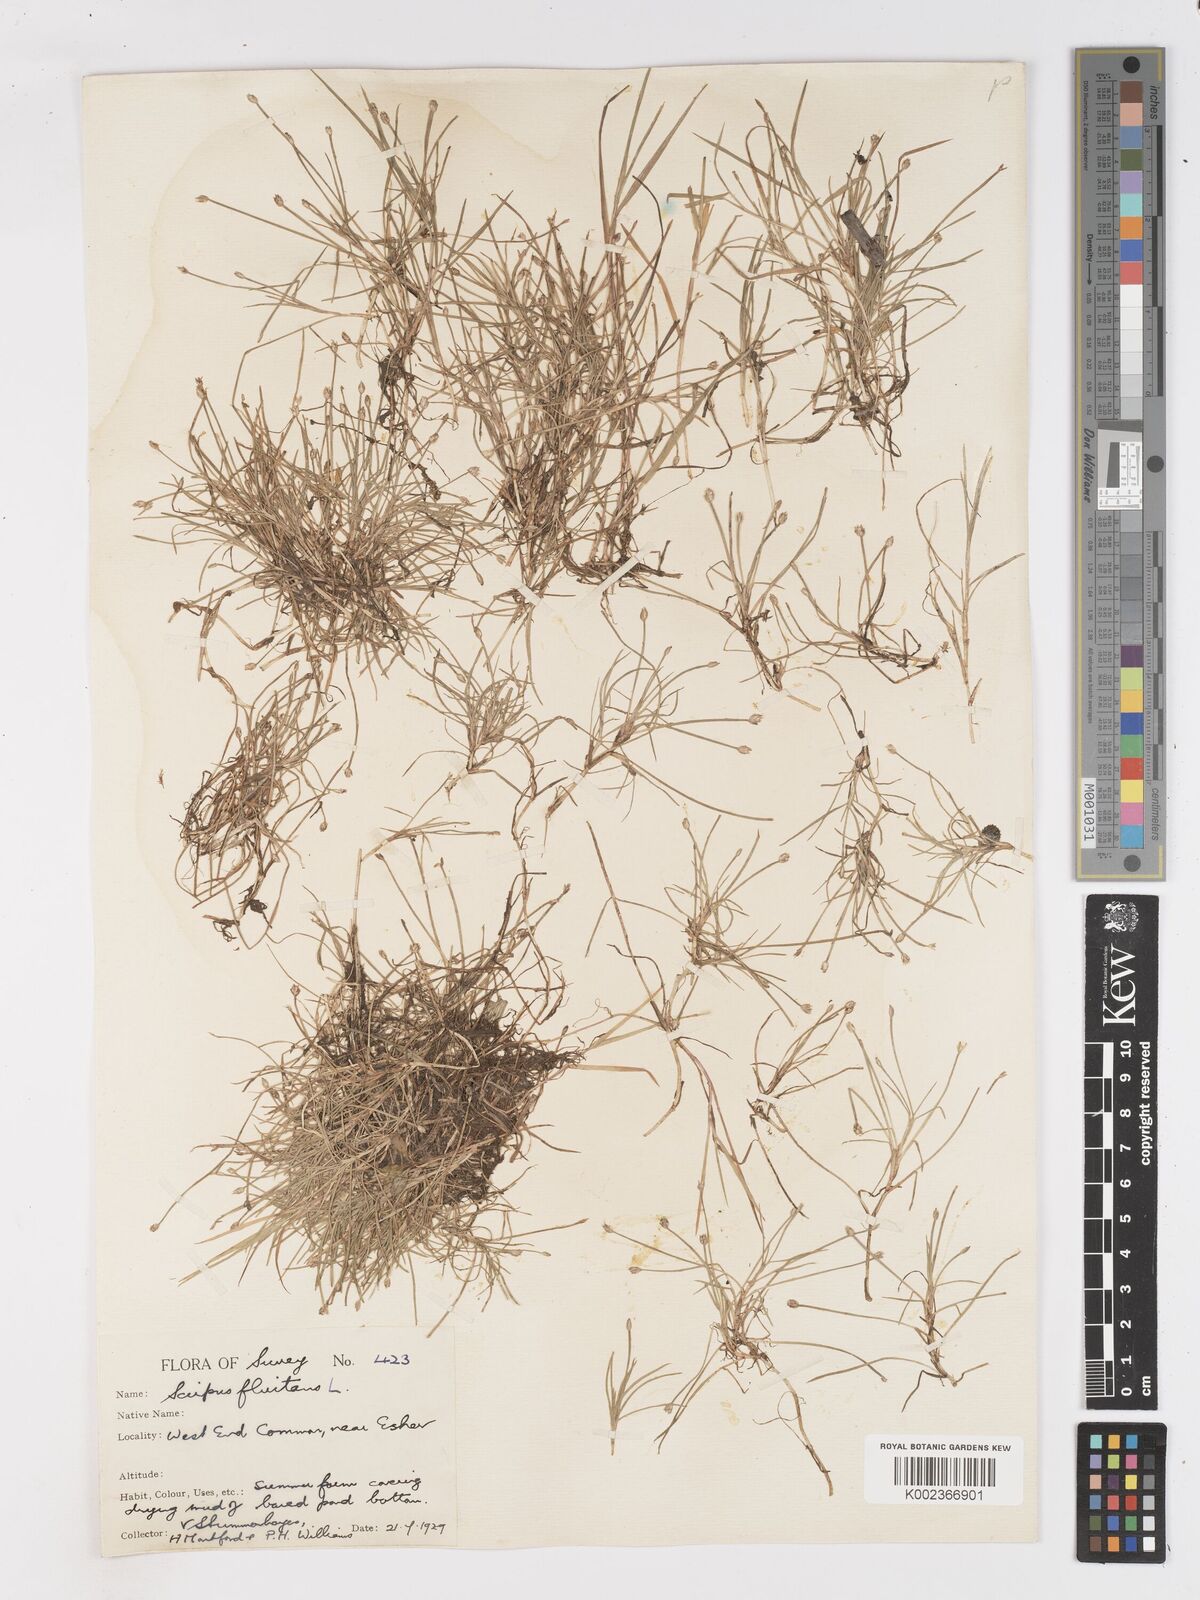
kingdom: Plantae
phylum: Tracheophyta
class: Liliopsida
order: Poales
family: Cyperaceae
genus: Isolepis
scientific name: Isolepis fluitans
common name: Floating club-rush
